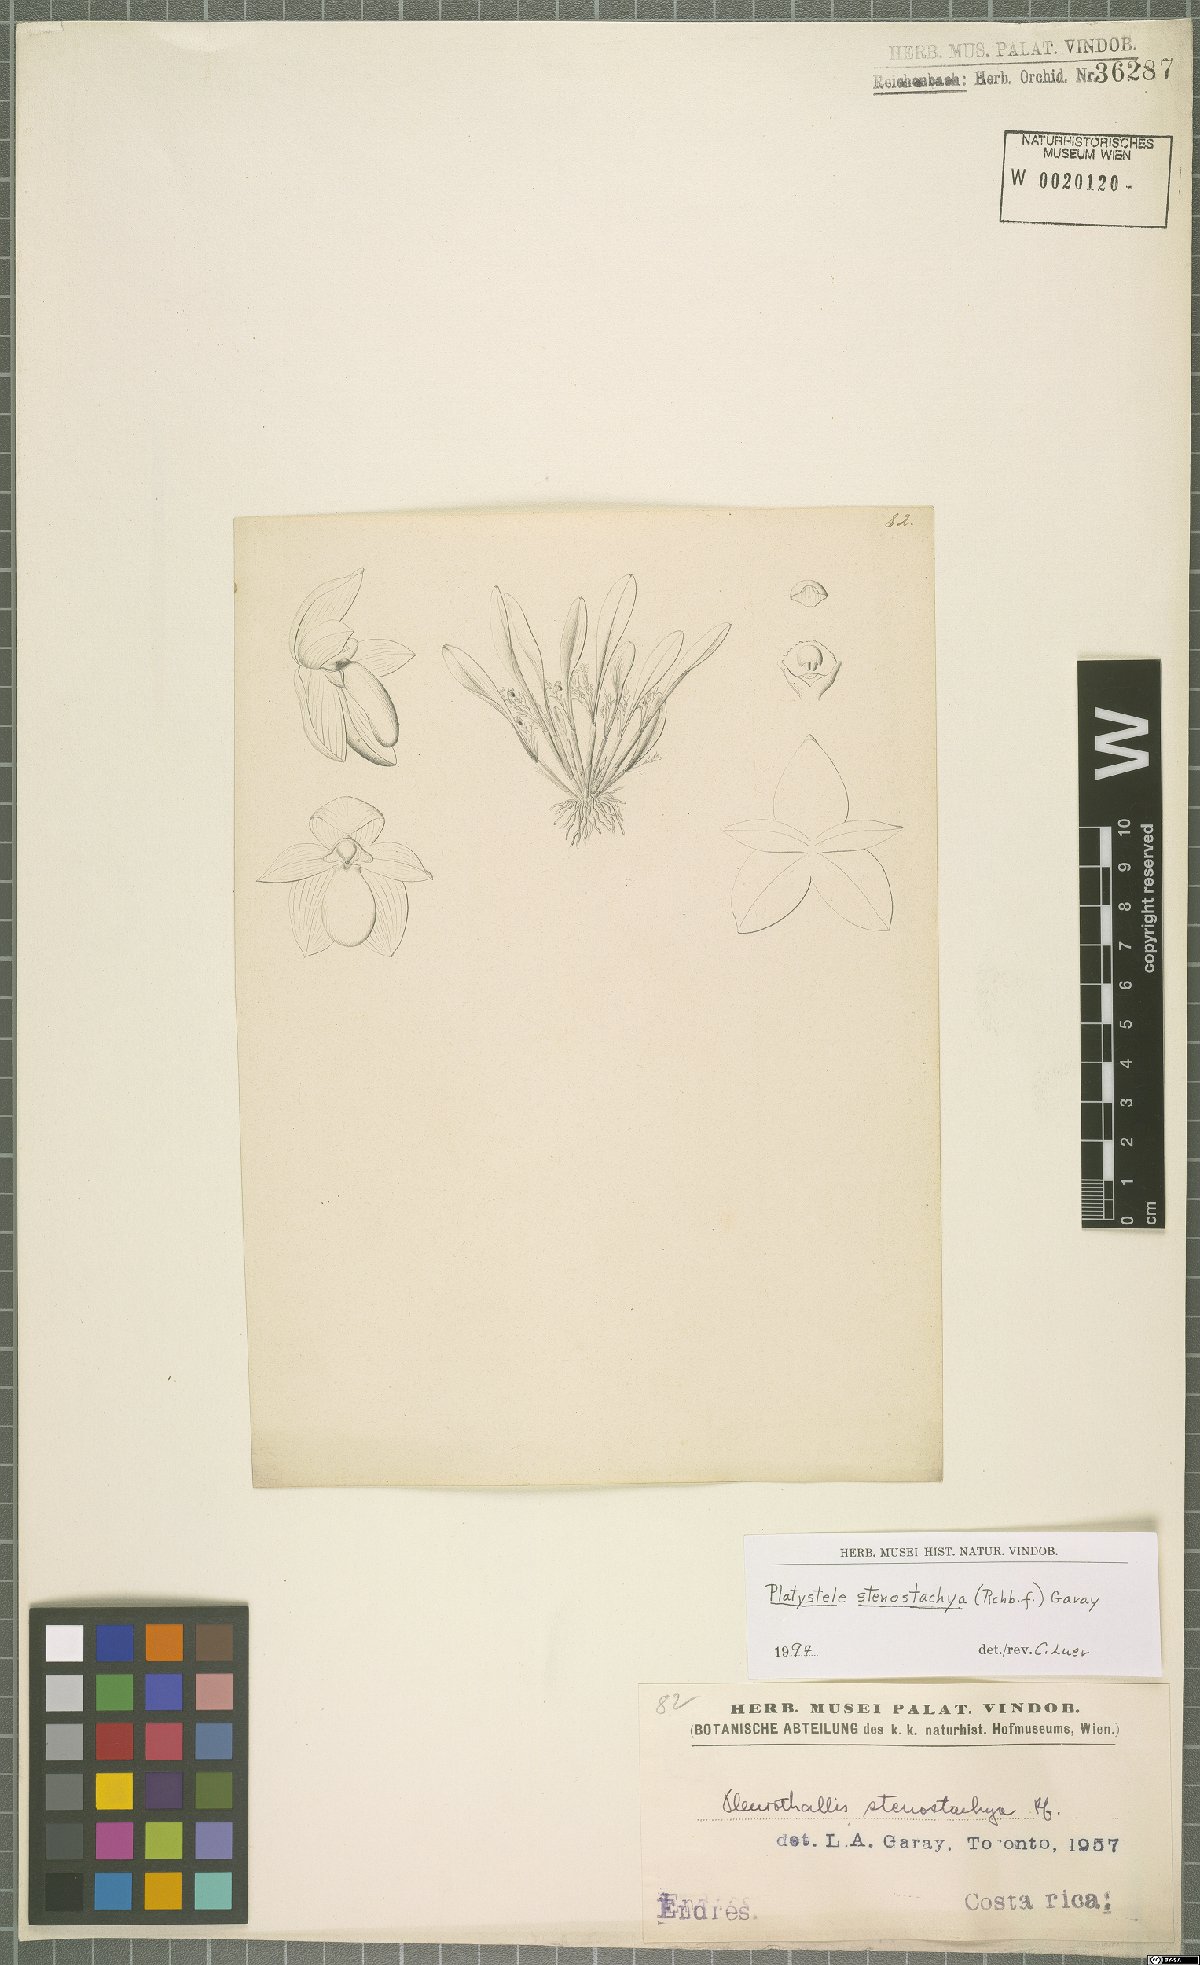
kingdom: Plantae
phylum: Tracheophyta
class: Liliopsida
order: Asparagales
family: Orchidaceae
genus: Platystele
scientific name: Platystele stenostachya
